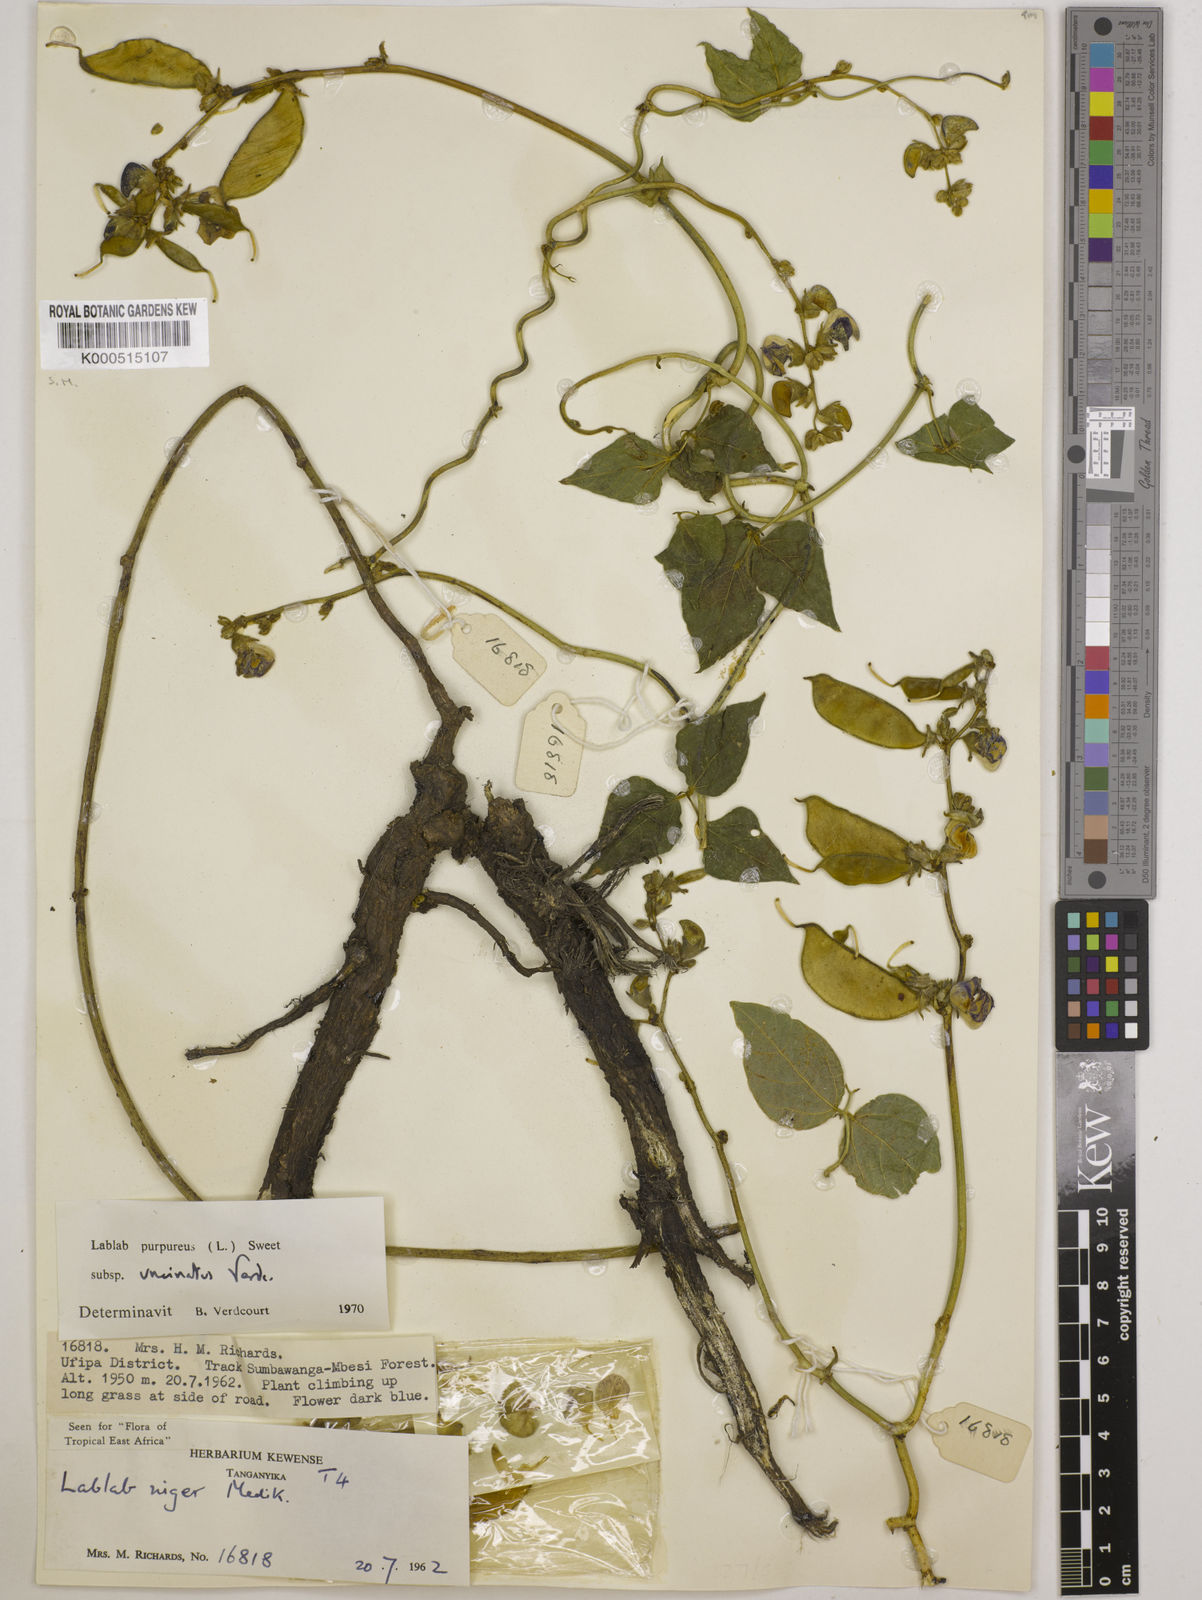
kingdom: Plantae
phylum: Tracheophyta
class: Magnoliopsida
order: Fabales
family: Fabaceae
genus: Lablab
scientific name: Lablab purpureus
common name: Lablab-bean
